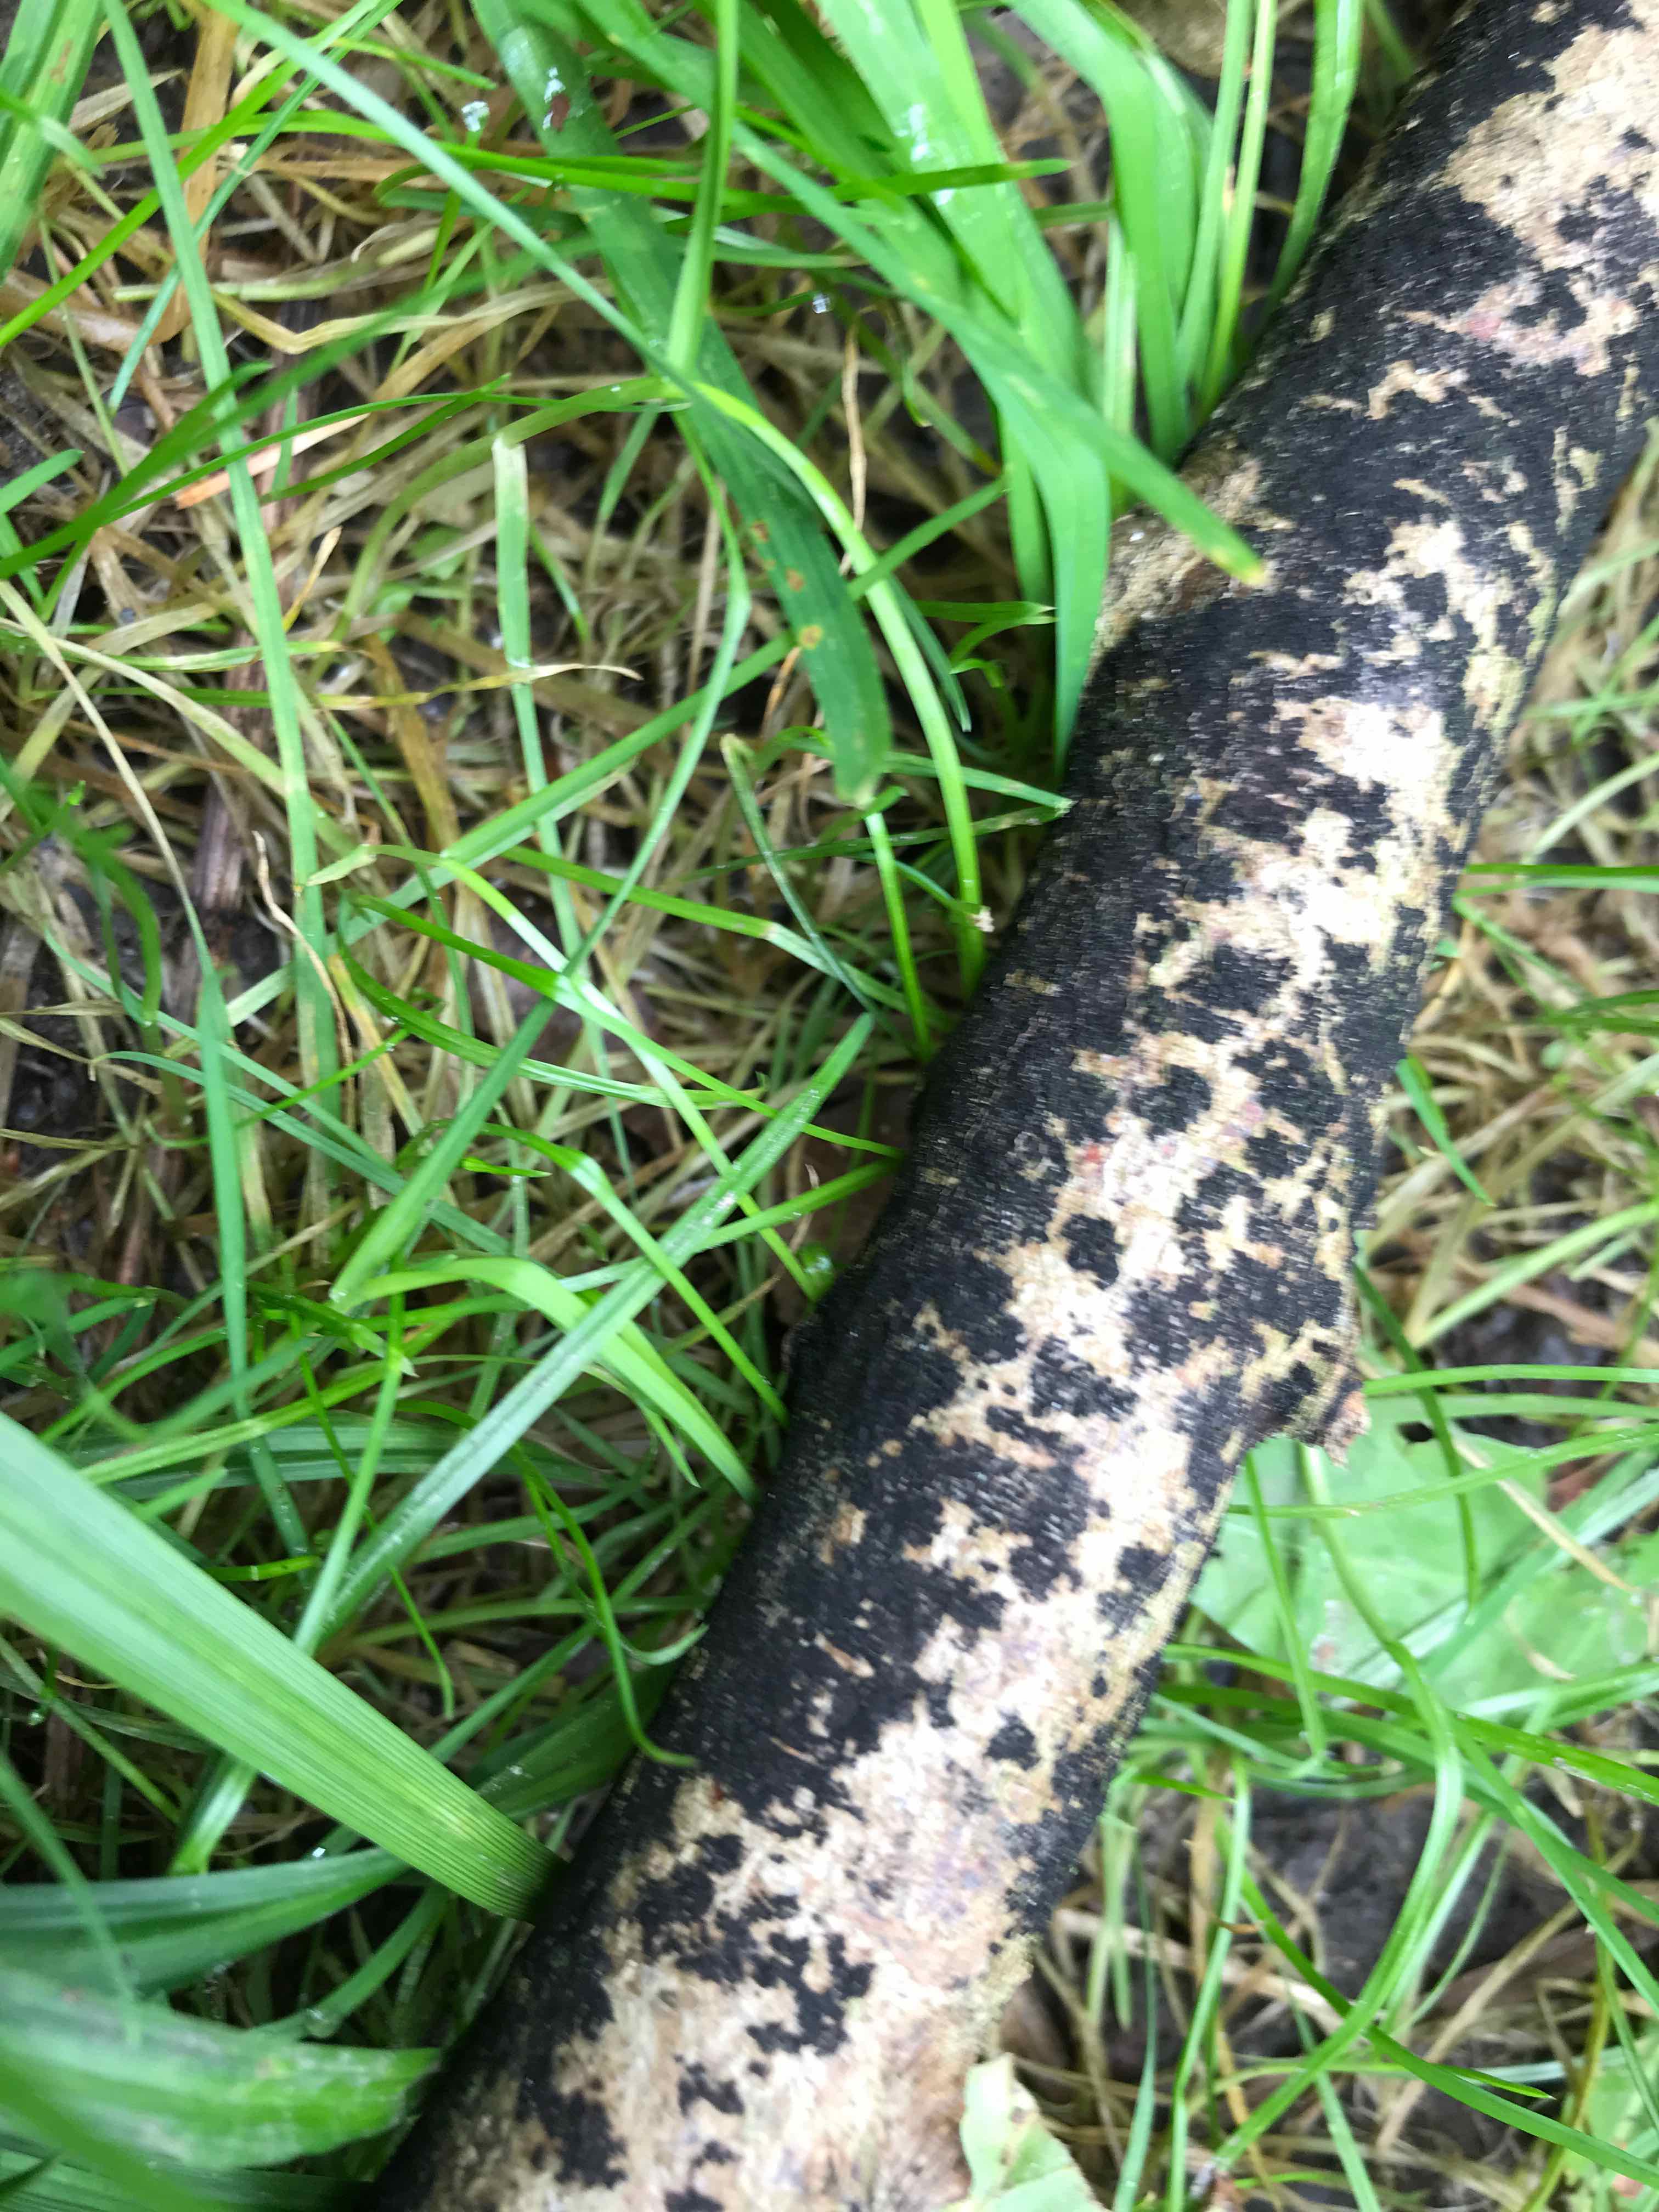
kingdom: Fungi
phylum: Ascomycota
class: Leotiomycetes
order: Rhytismatales
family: Ascodichaenaceae
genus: Ascodichaena
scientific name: Ascodichaena rugosa
